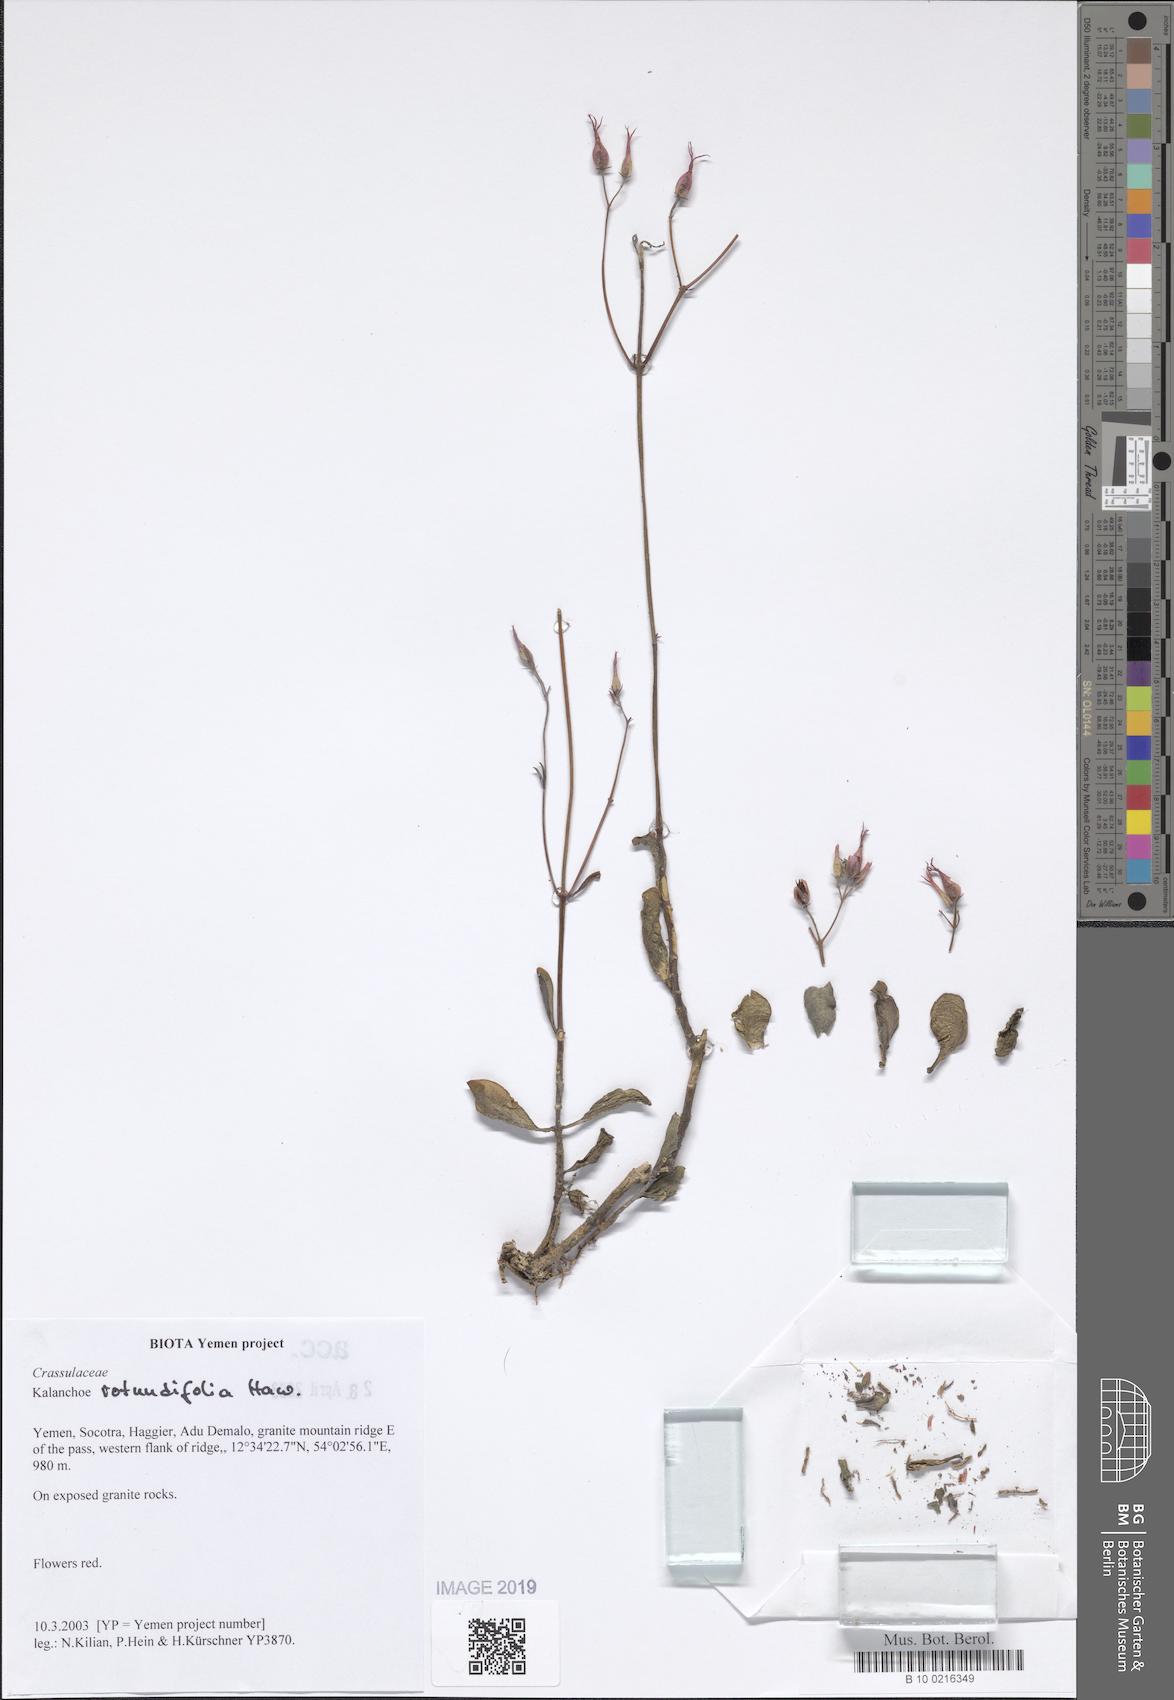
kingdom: Plantae
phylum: Tracheophyta
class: Magnoliopsida
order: Saxifragales
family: Crassulaceae
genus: Kalanchoe
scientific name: Kalanchoe rotundifolia
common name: Common kalanchoe
